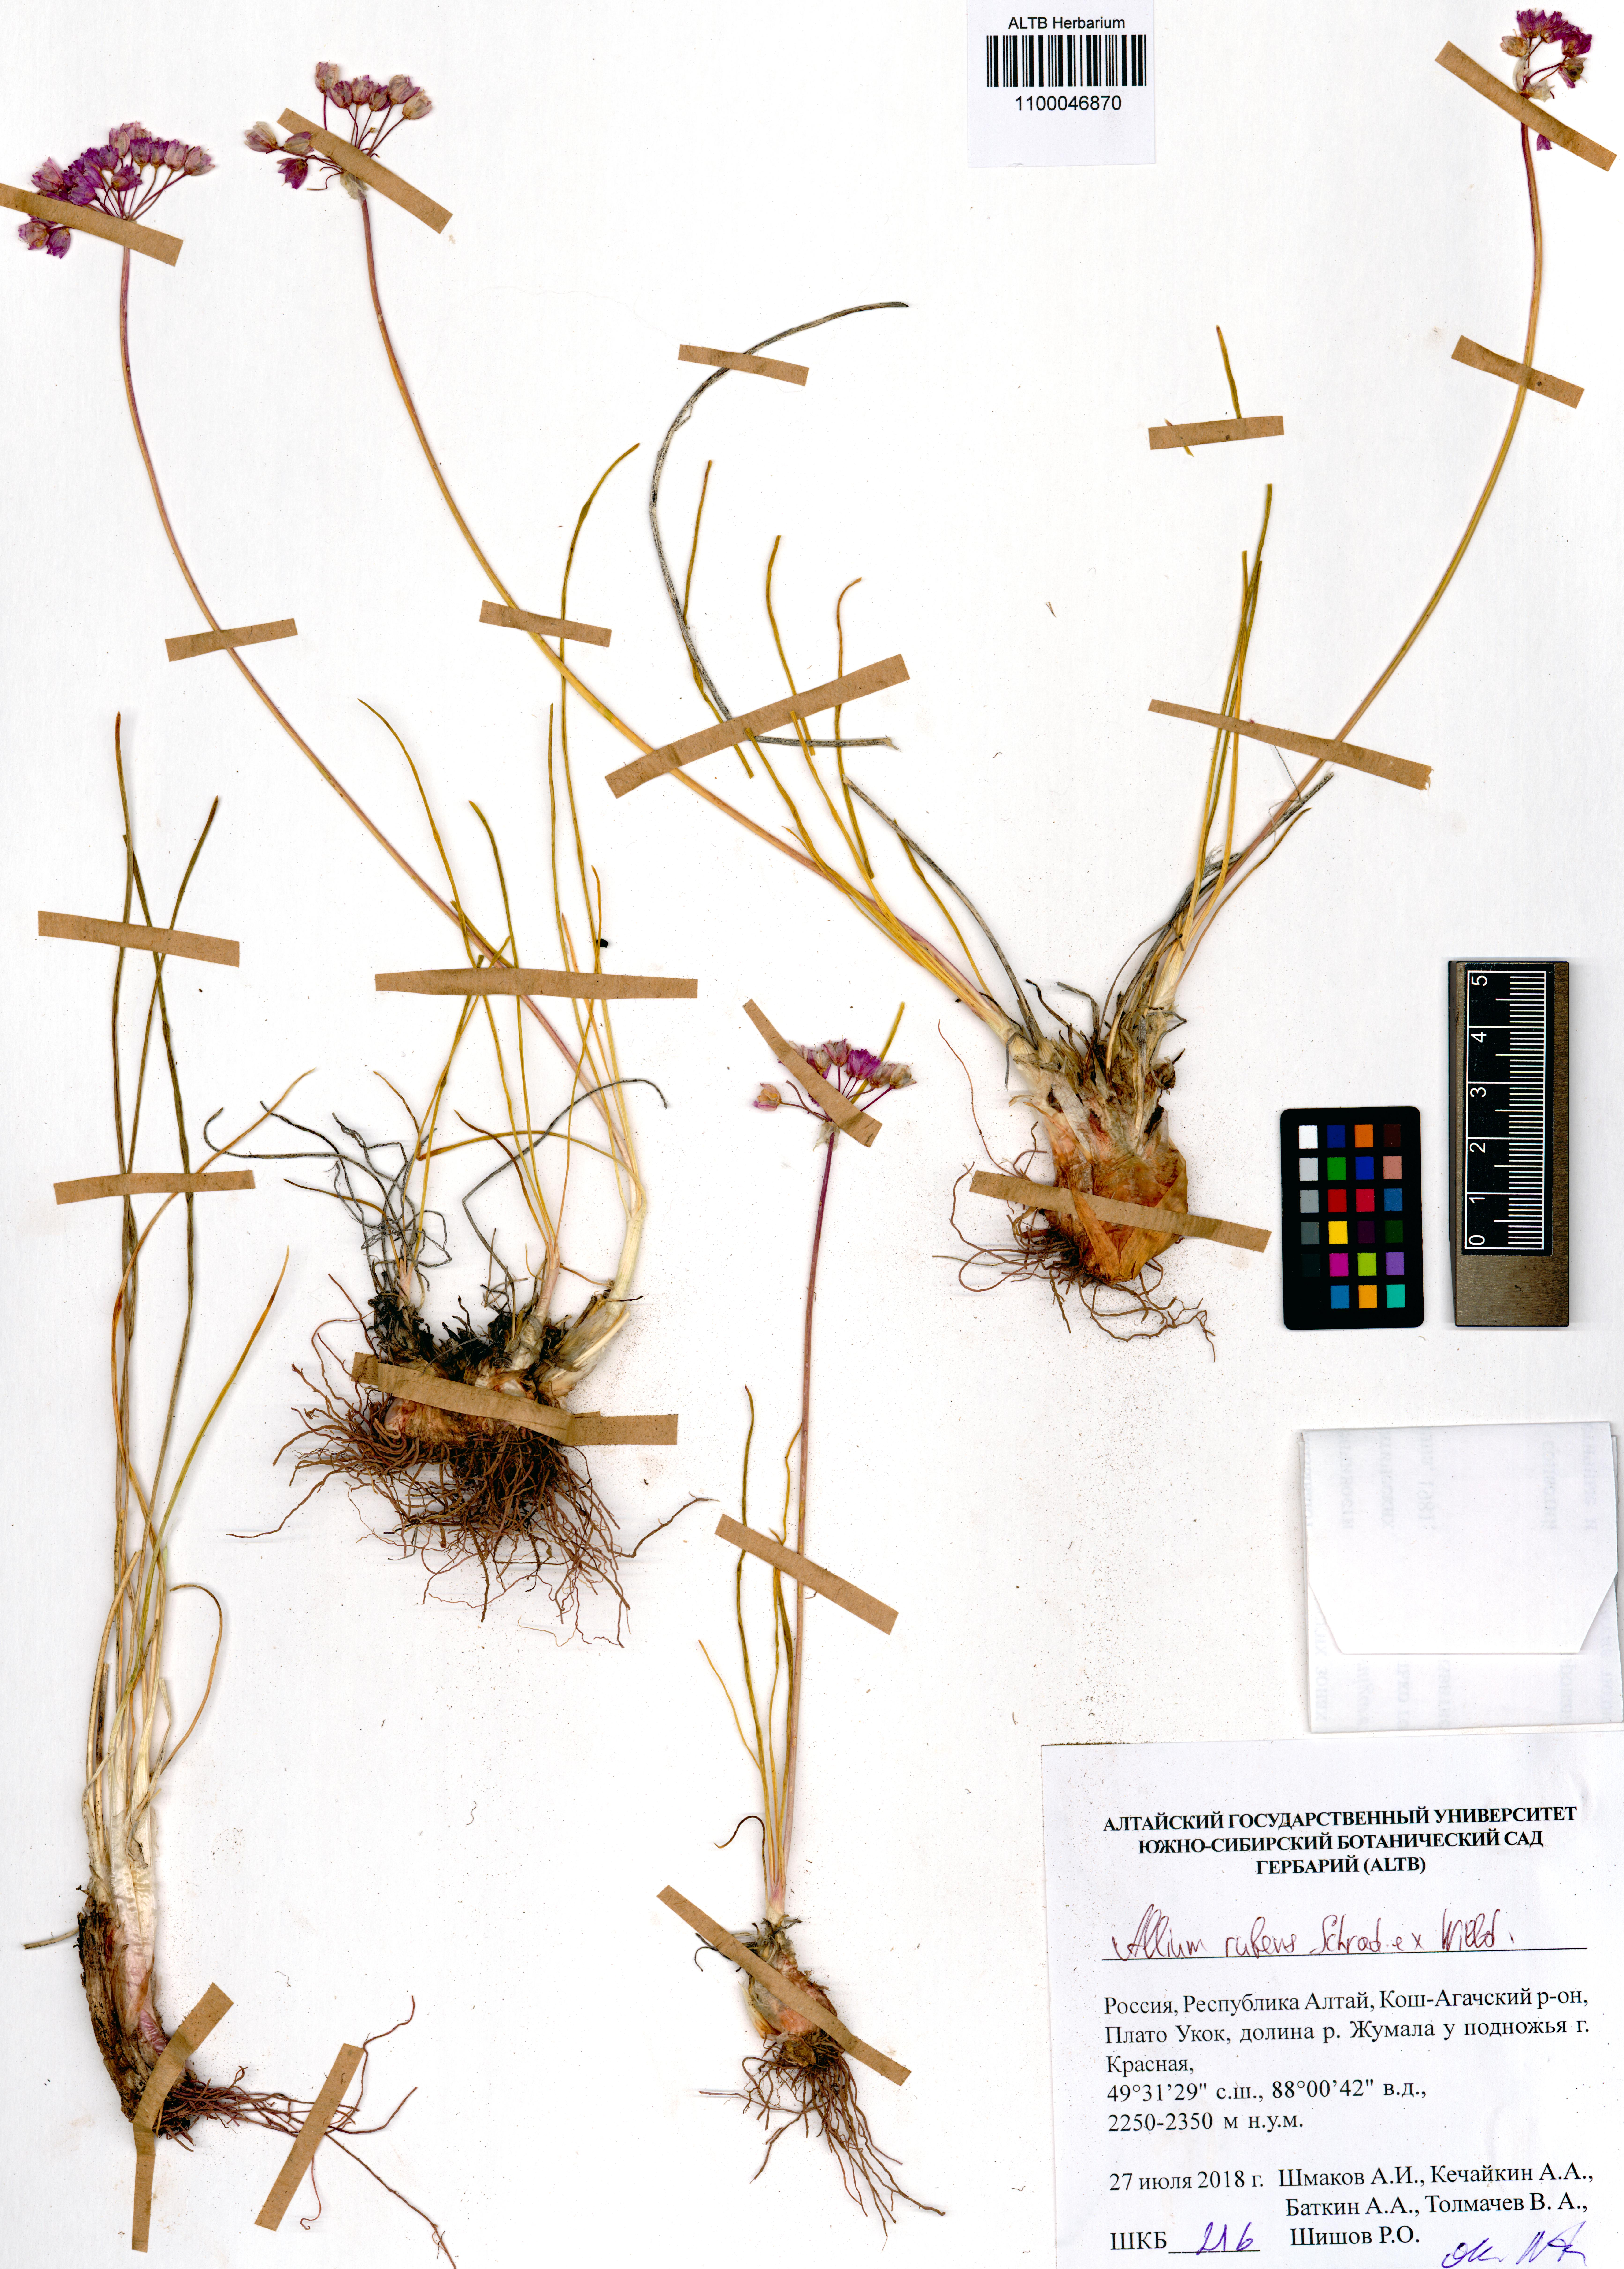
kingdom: Plantae
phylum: Tracheophyta
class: Liliopsida
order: Asparagales
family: Amaryllidaceae
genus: Allium
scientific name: Allium rubens
